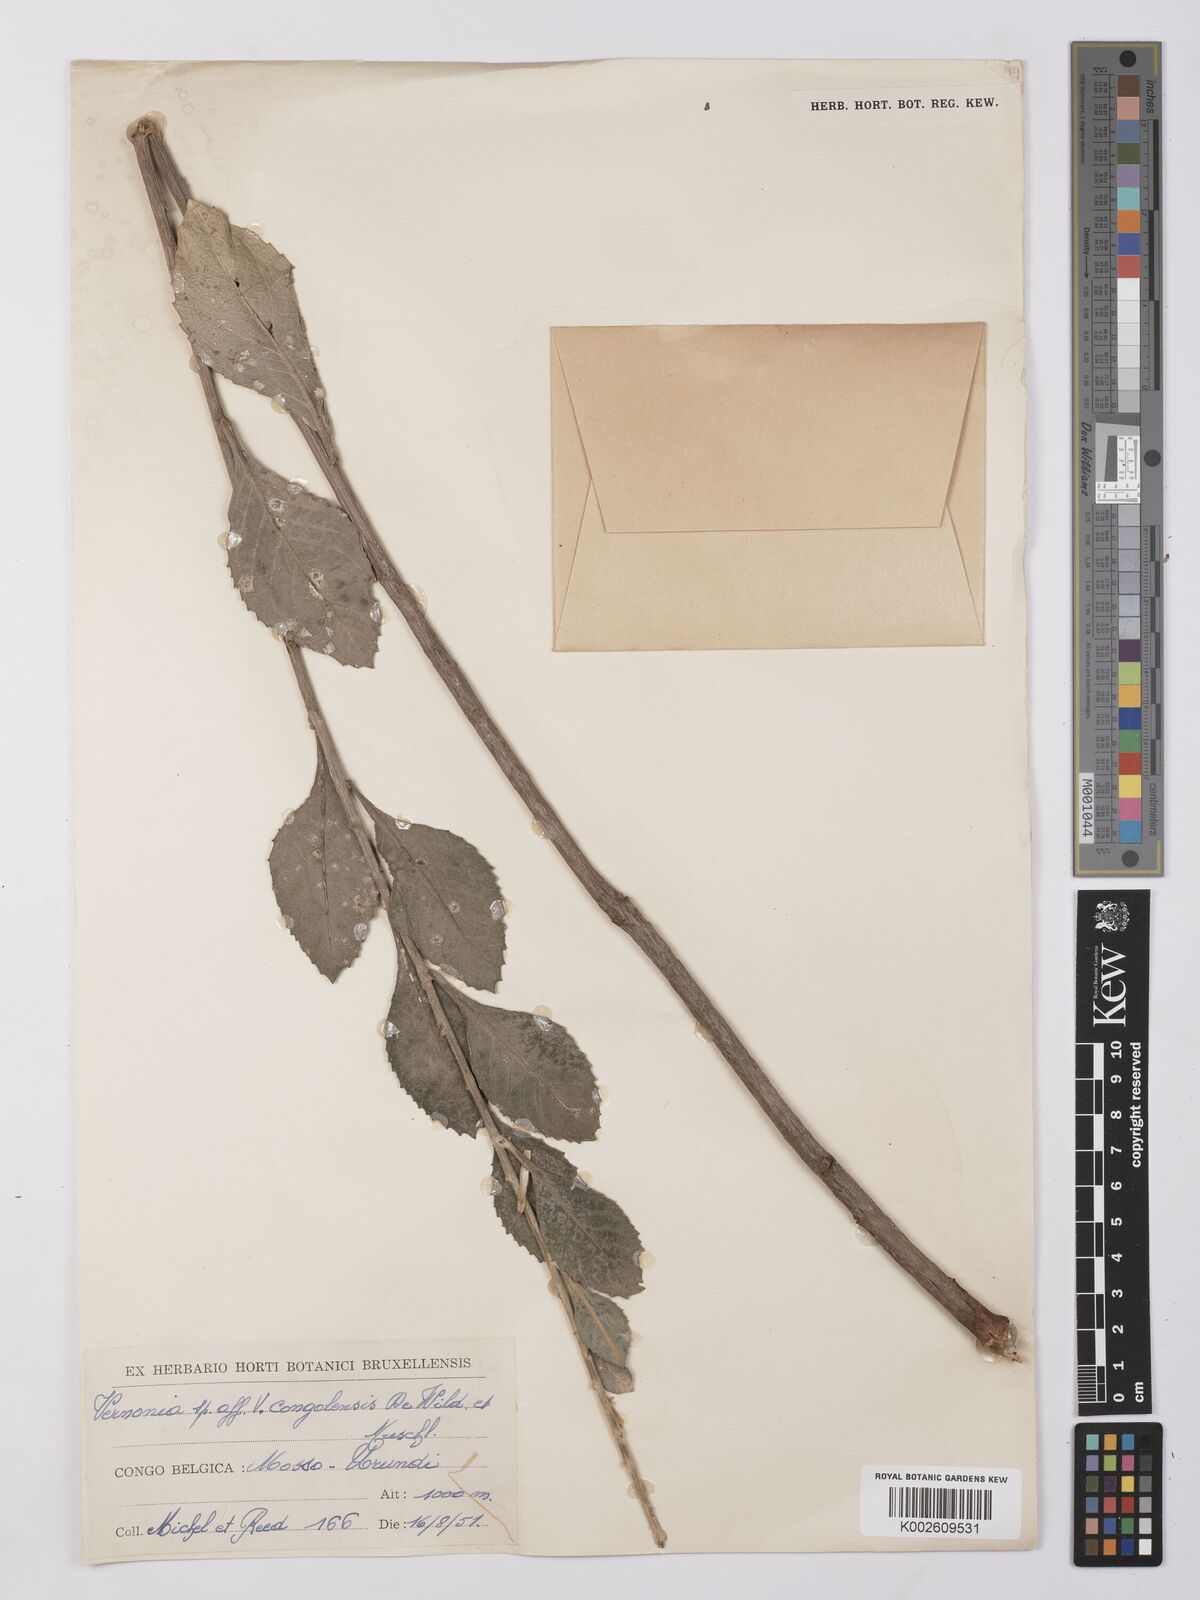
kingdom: Plantae
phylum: Tracheophyta
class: Magnoliopsida
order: Asterales
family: Asteraceae
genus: Vernonia
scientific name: Vernonia
